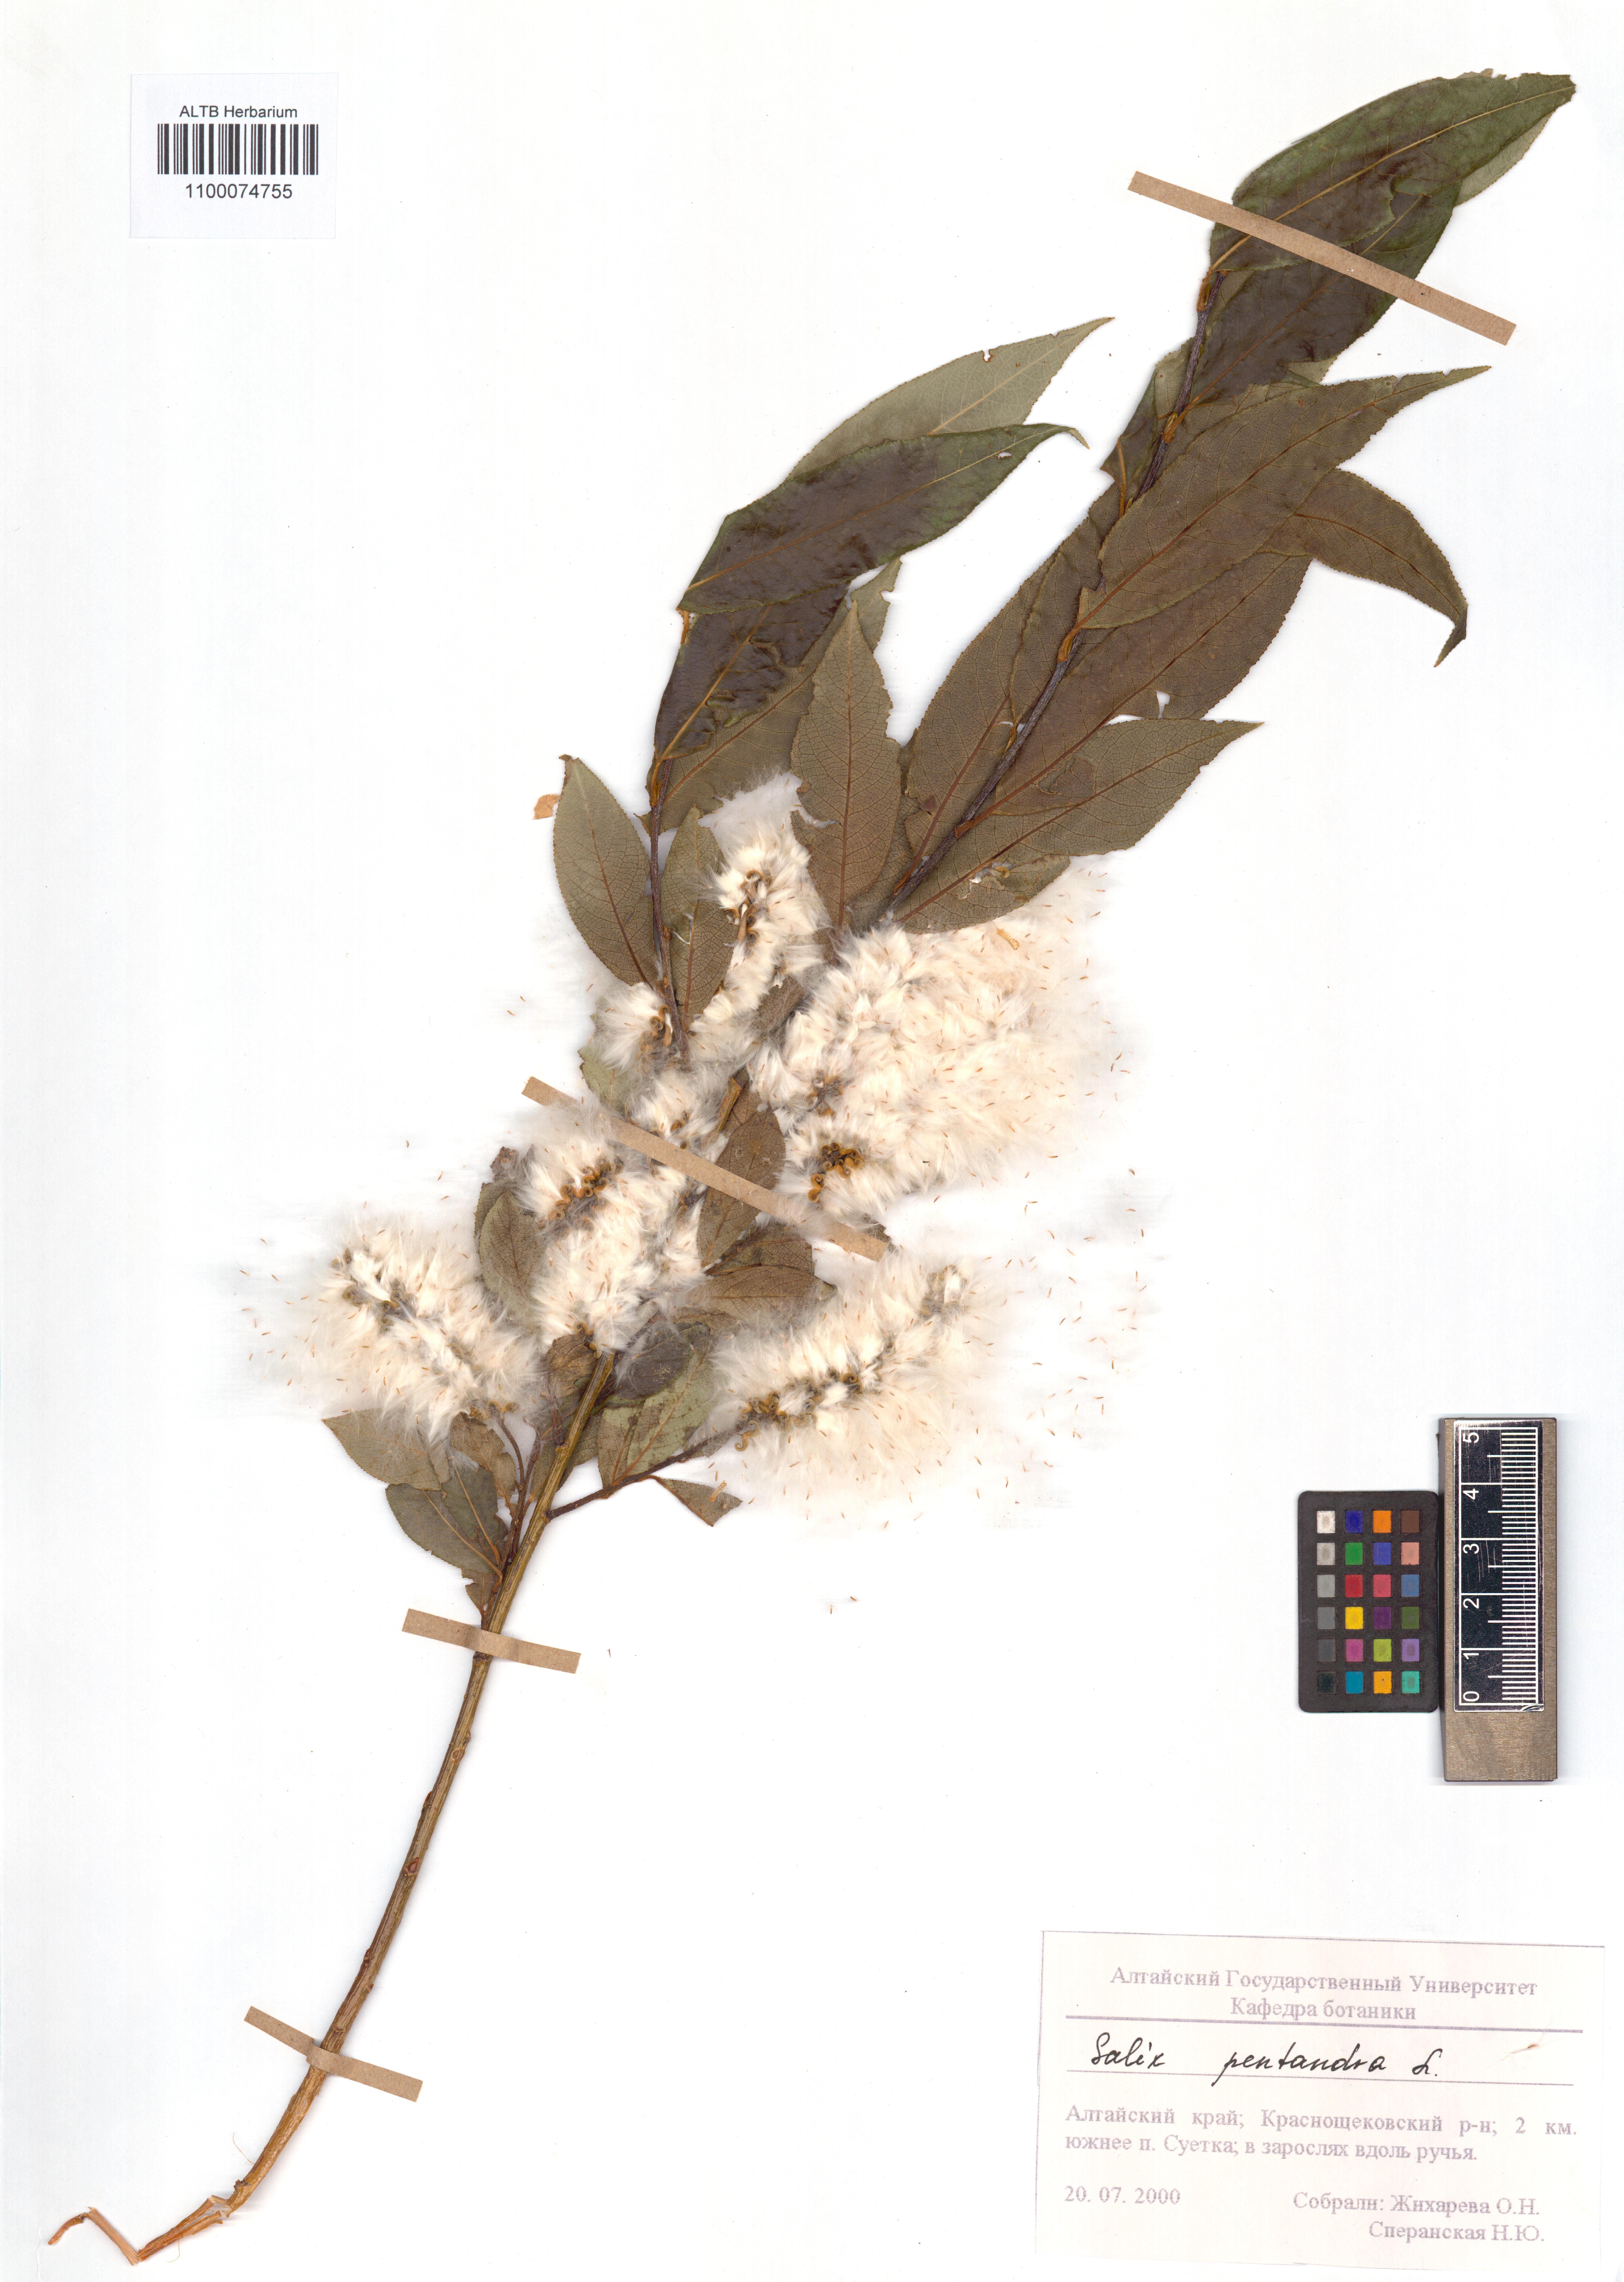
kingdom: Plantae
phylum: Tracheophyta
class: Magnoliopsida
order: Malpighiales
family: Salicaceae
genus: Salix
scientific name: Salix pentandra
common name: Bay willow
